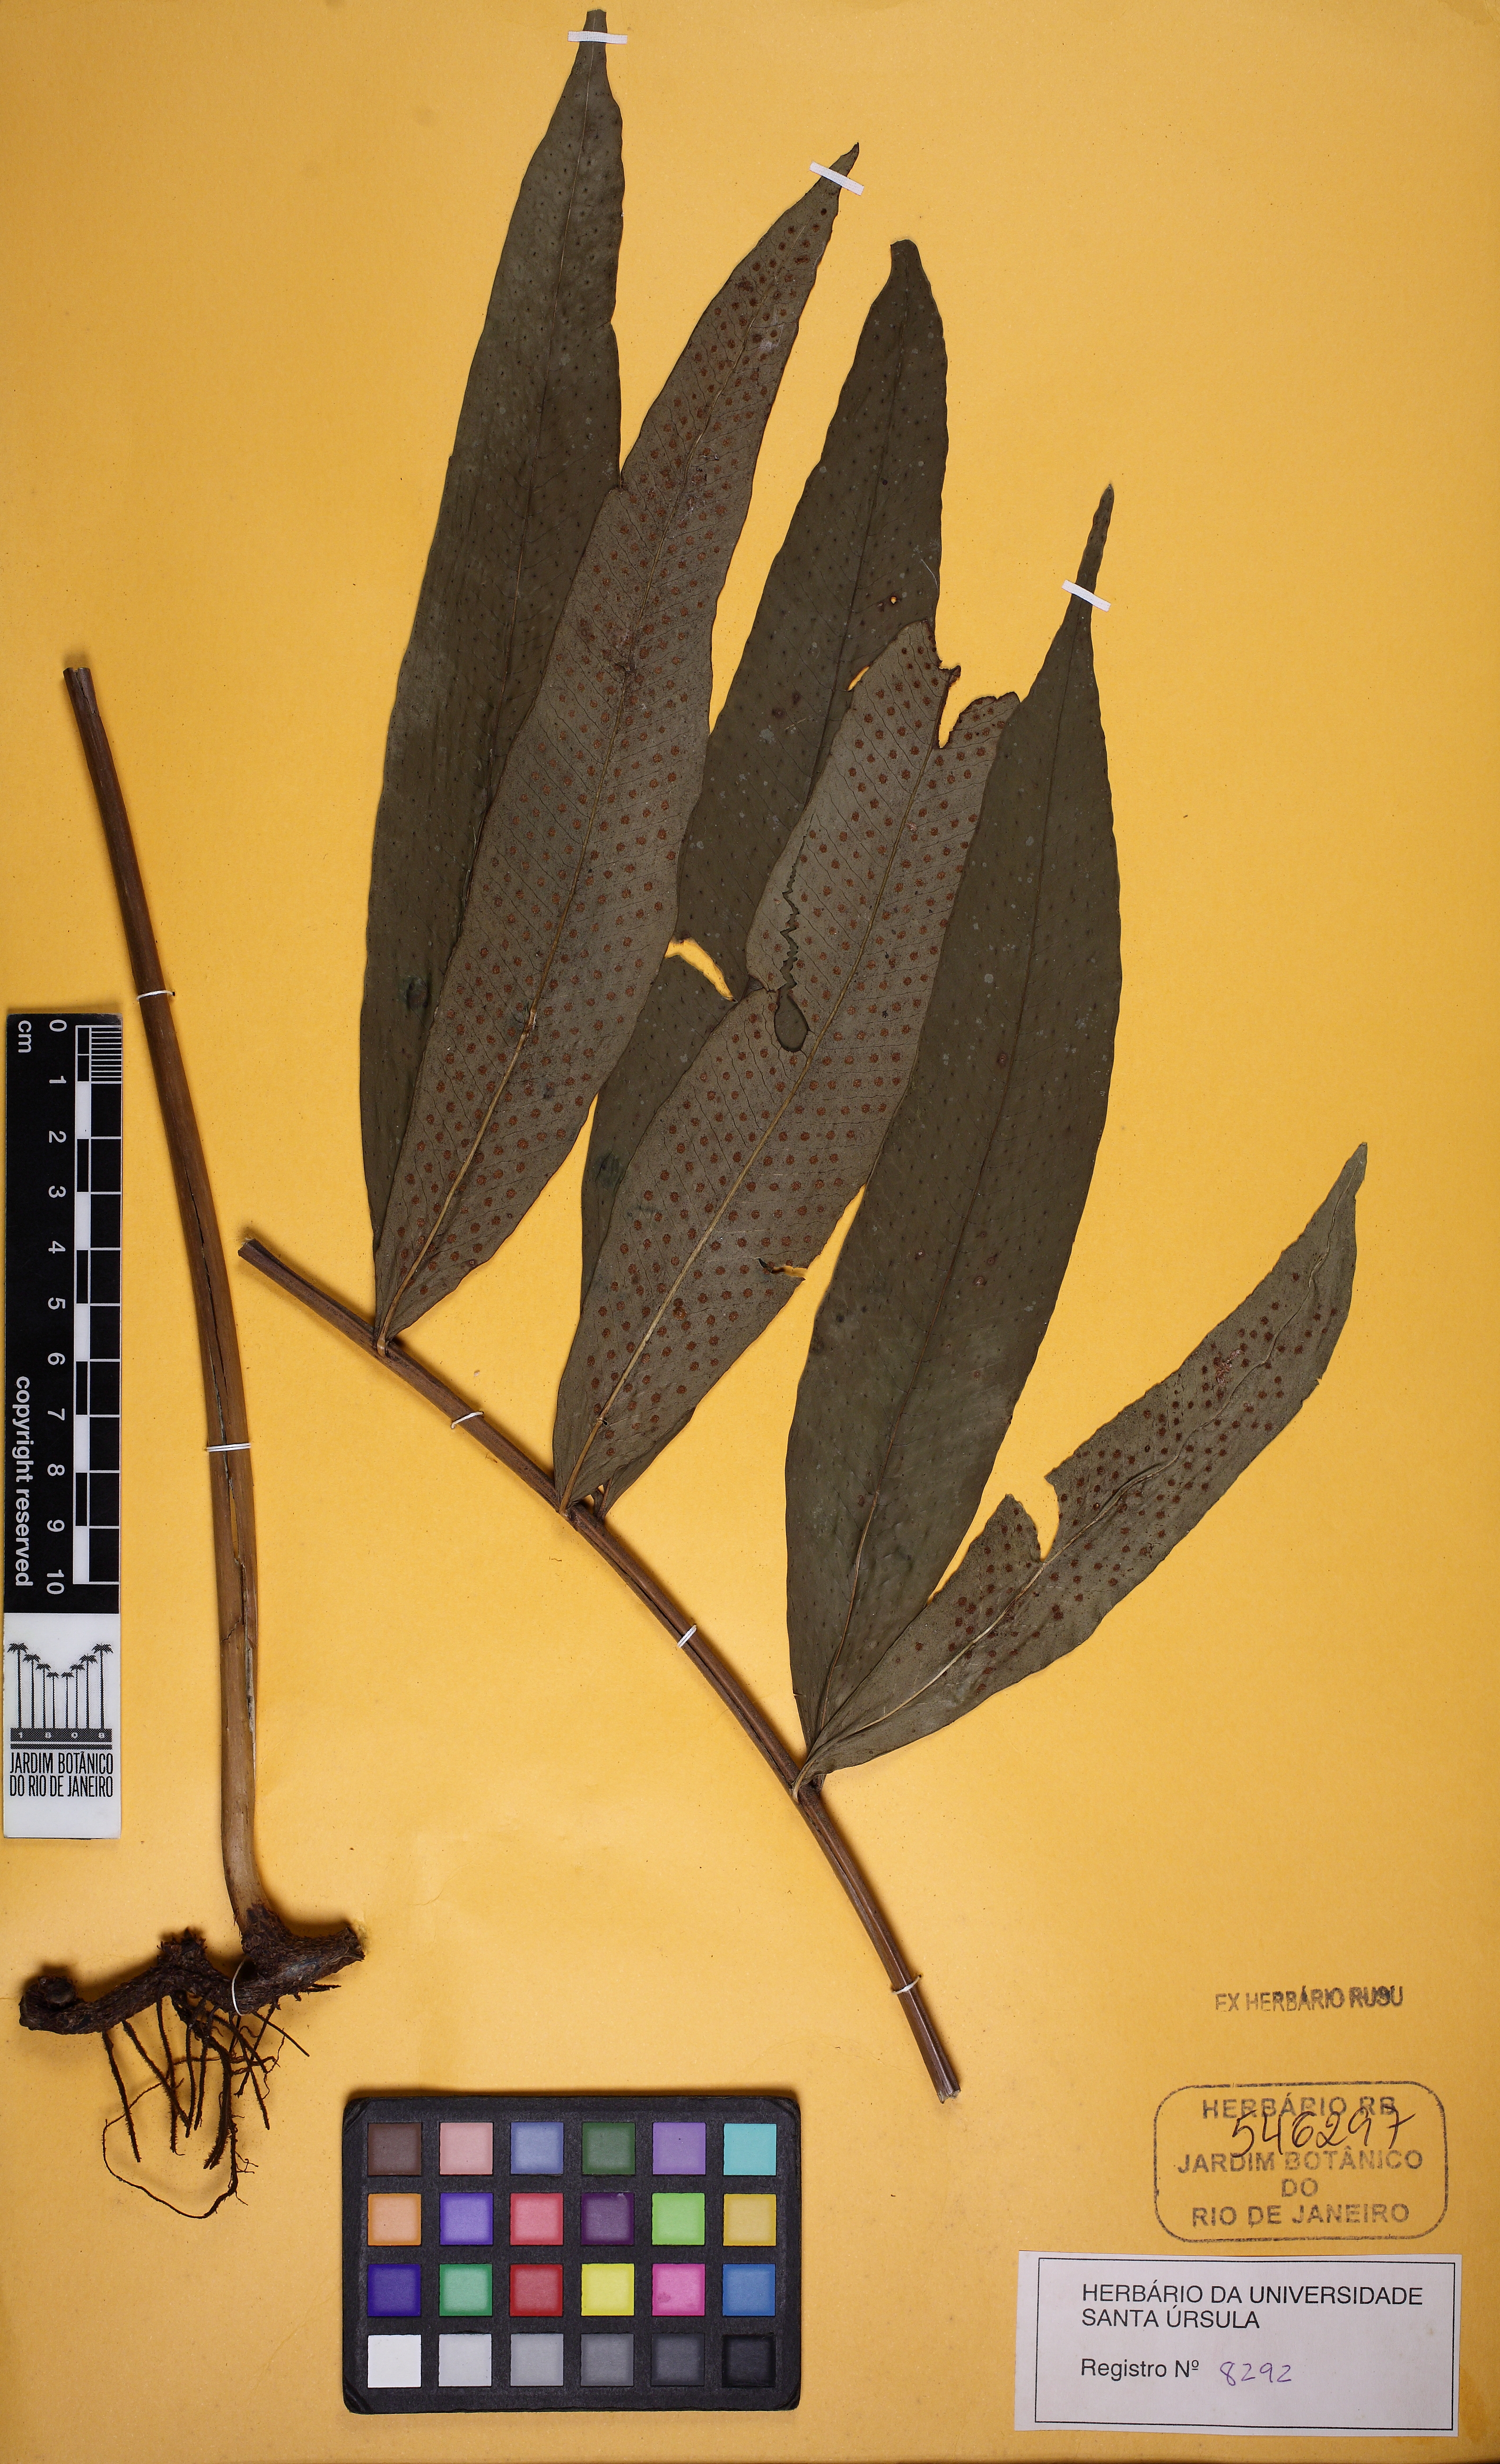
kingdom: Plantae
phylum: Tracheophyta
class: Polypodiopsida
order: Polypodiales
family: Polypodiaceae
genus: Campyloneurum
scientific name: Campyloneurum decurrens
